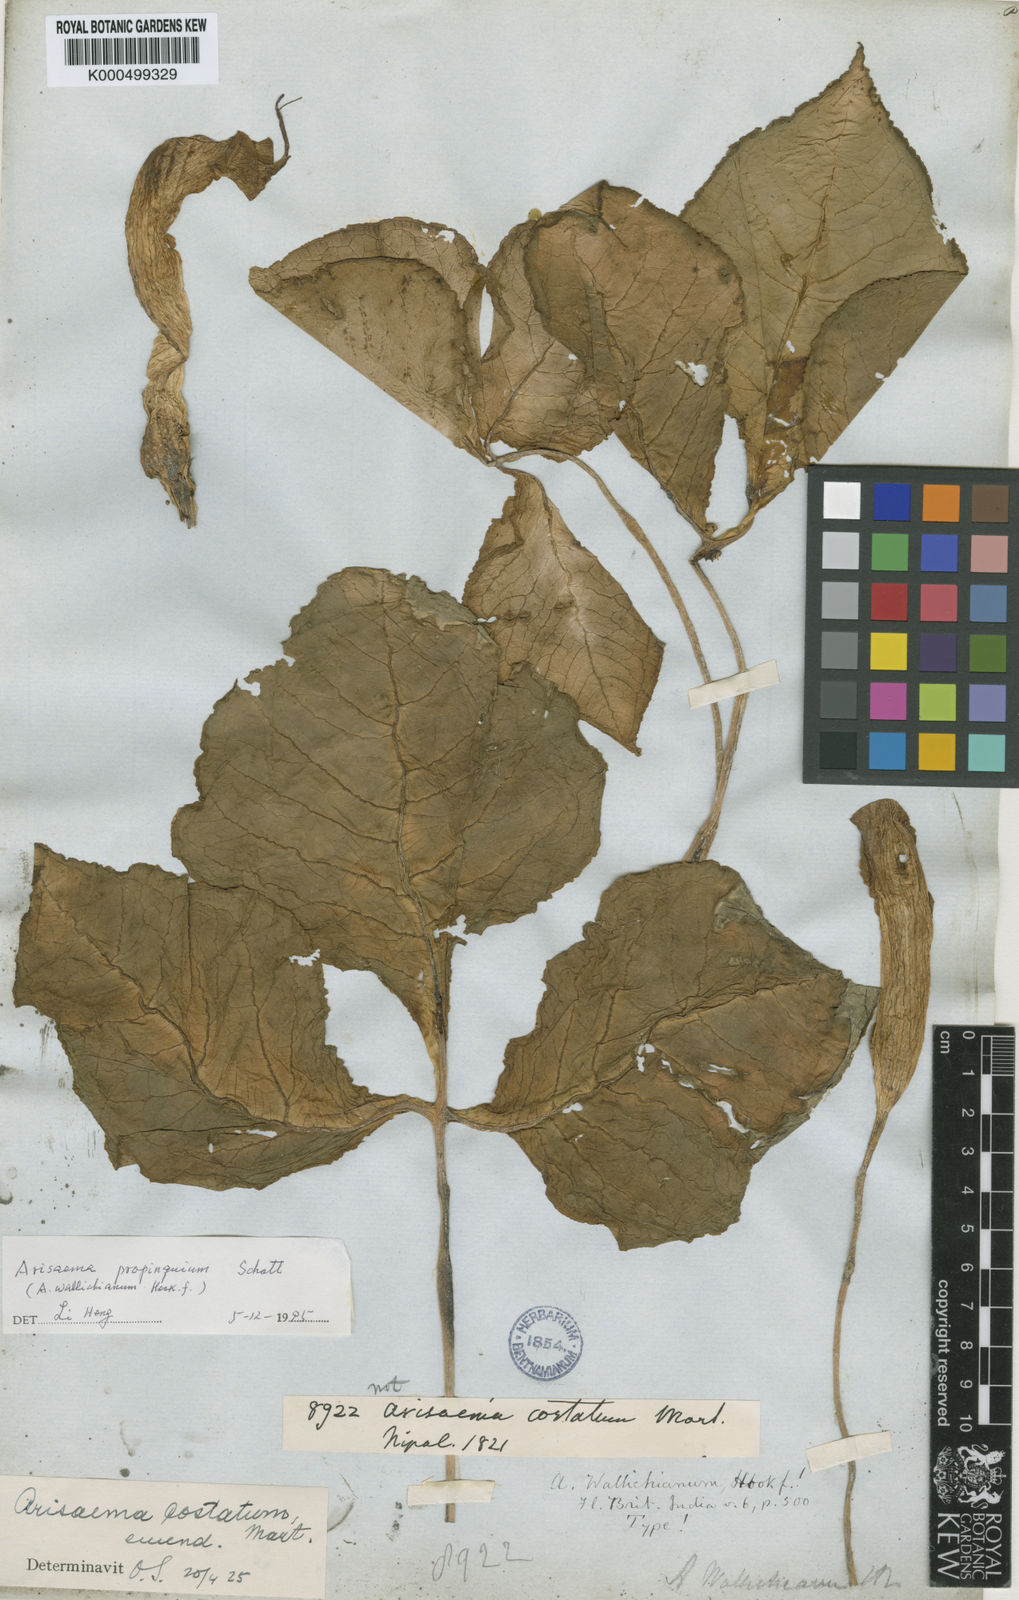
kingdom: Plantae
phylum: Tracheophyta
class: Liliopsida
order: Alismatales
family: Araceae
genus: Arisaema
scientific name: Arisaema propinquum
